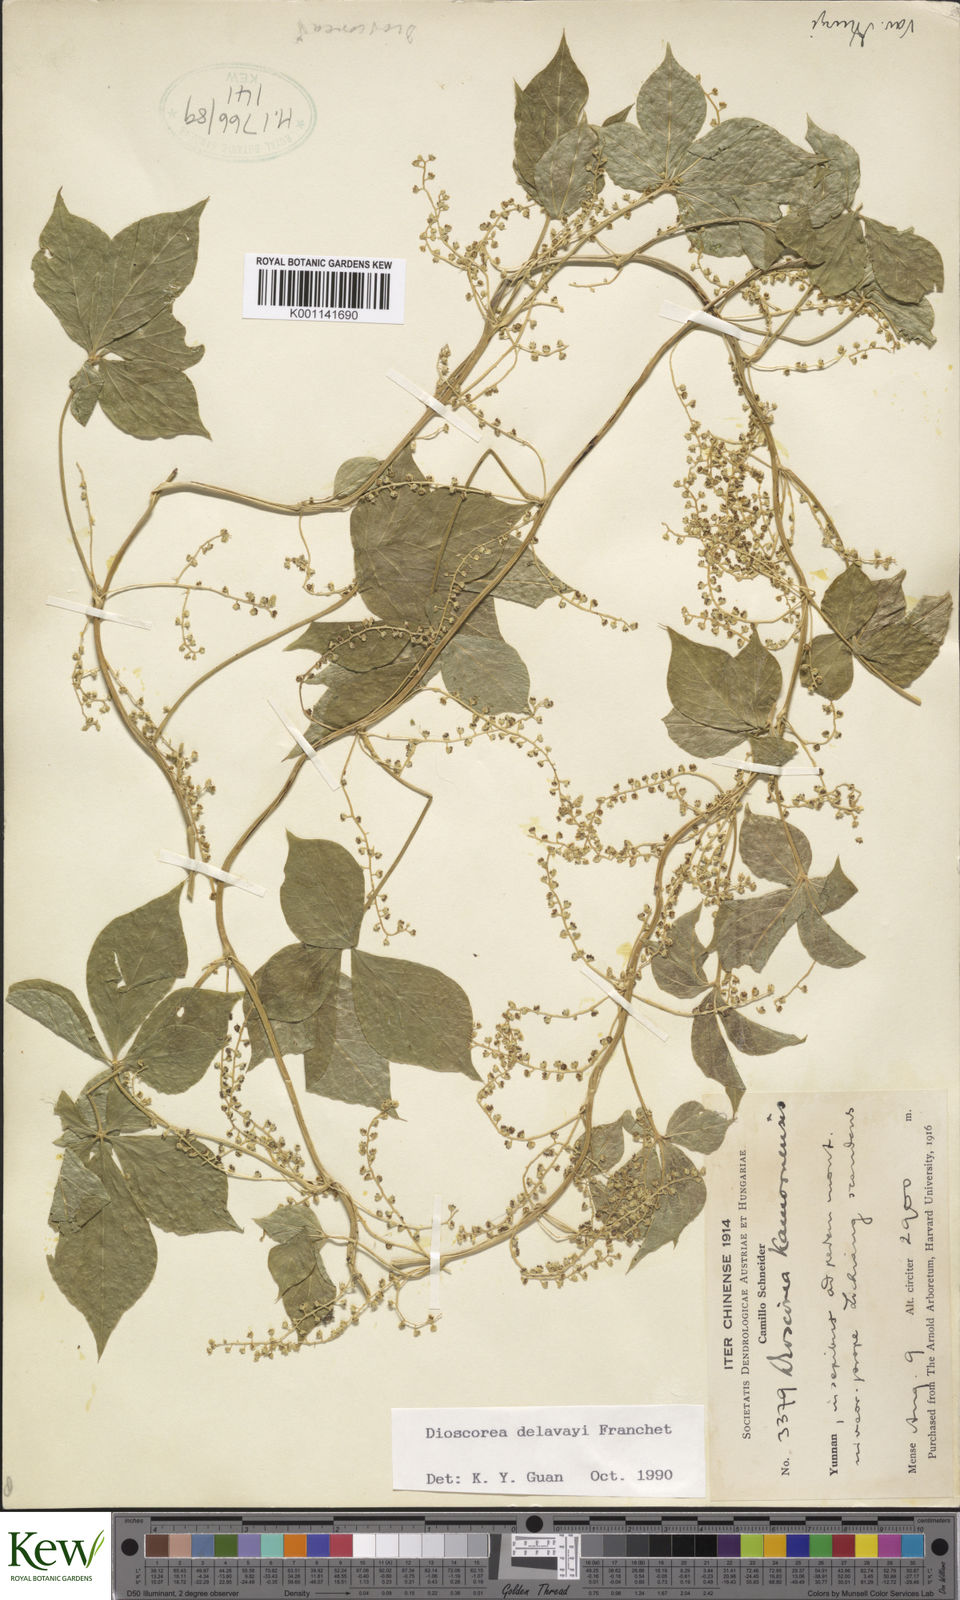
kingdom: Plantae
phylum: Tracheophyta
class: Liliopsida
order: Dioscoreales
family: Dioscoreaceae
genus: Dioscorea
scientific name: Dioscorea kamoonensis
